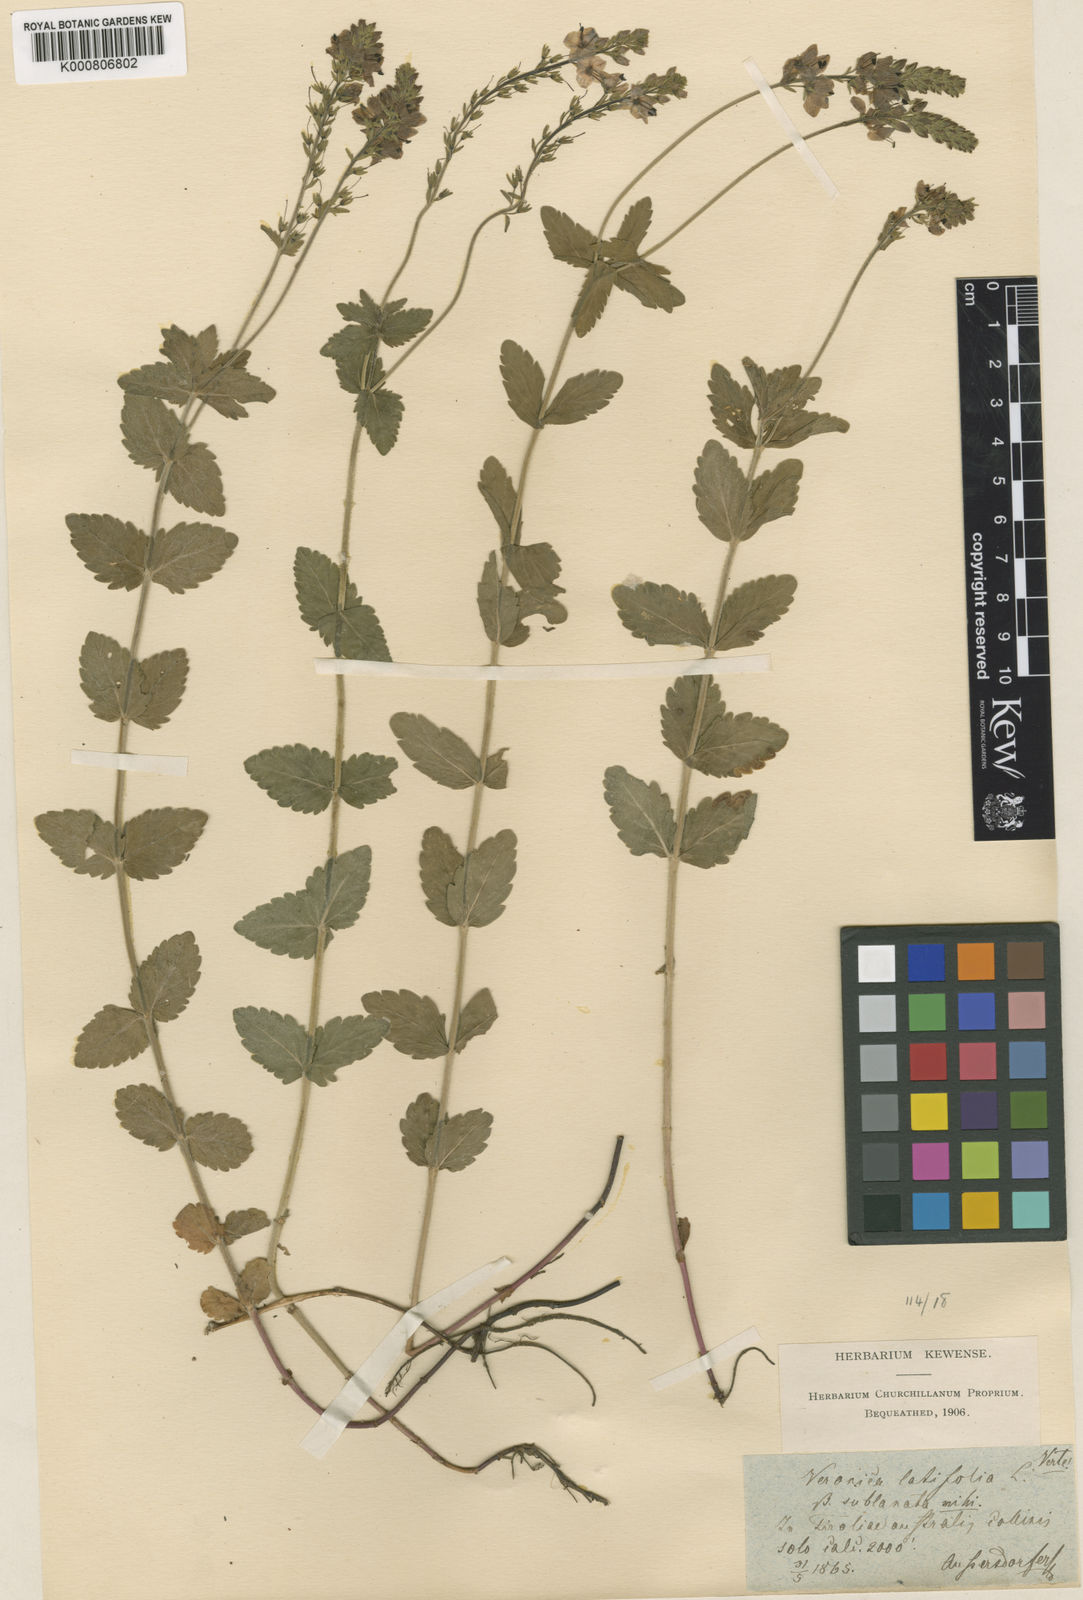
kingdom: Plantae
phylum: Tracheophyta
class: Magnoliopsida
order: Lamiales
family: Plantaginaceae
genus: Veronica
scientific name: Veronica teucrium
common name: Large speedwell
